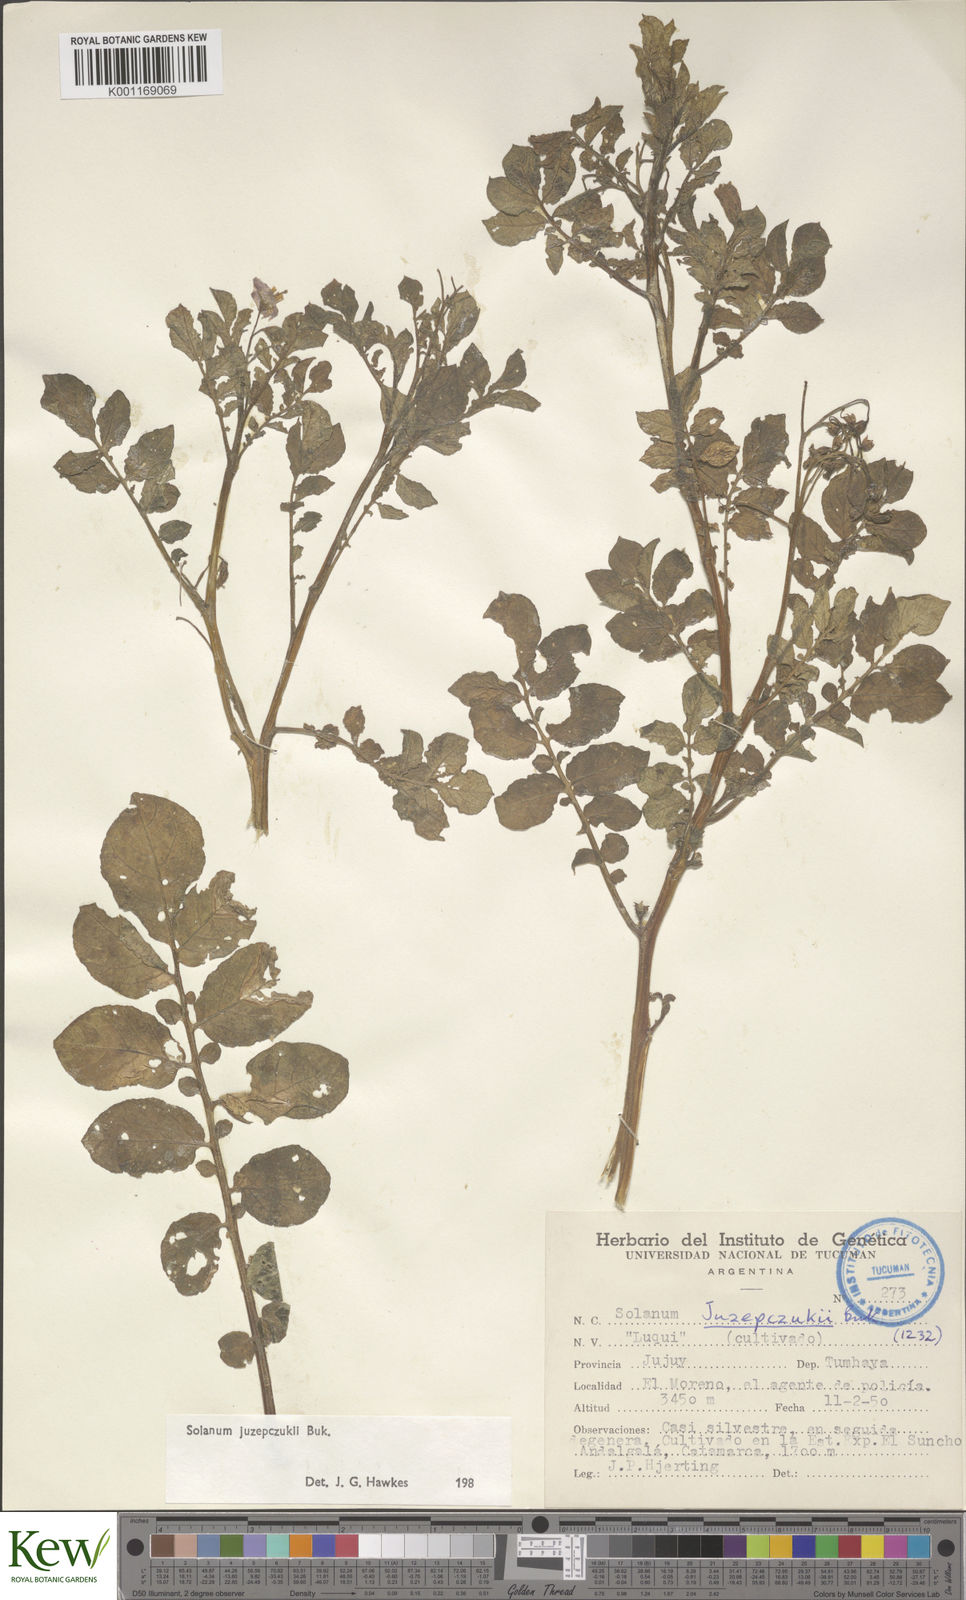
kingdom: Plantae
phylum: Tracheophyta
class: Magnoliopsida
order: Solanales
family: Solanaceae
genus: Solanum
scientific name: Solanum juzepczukii
